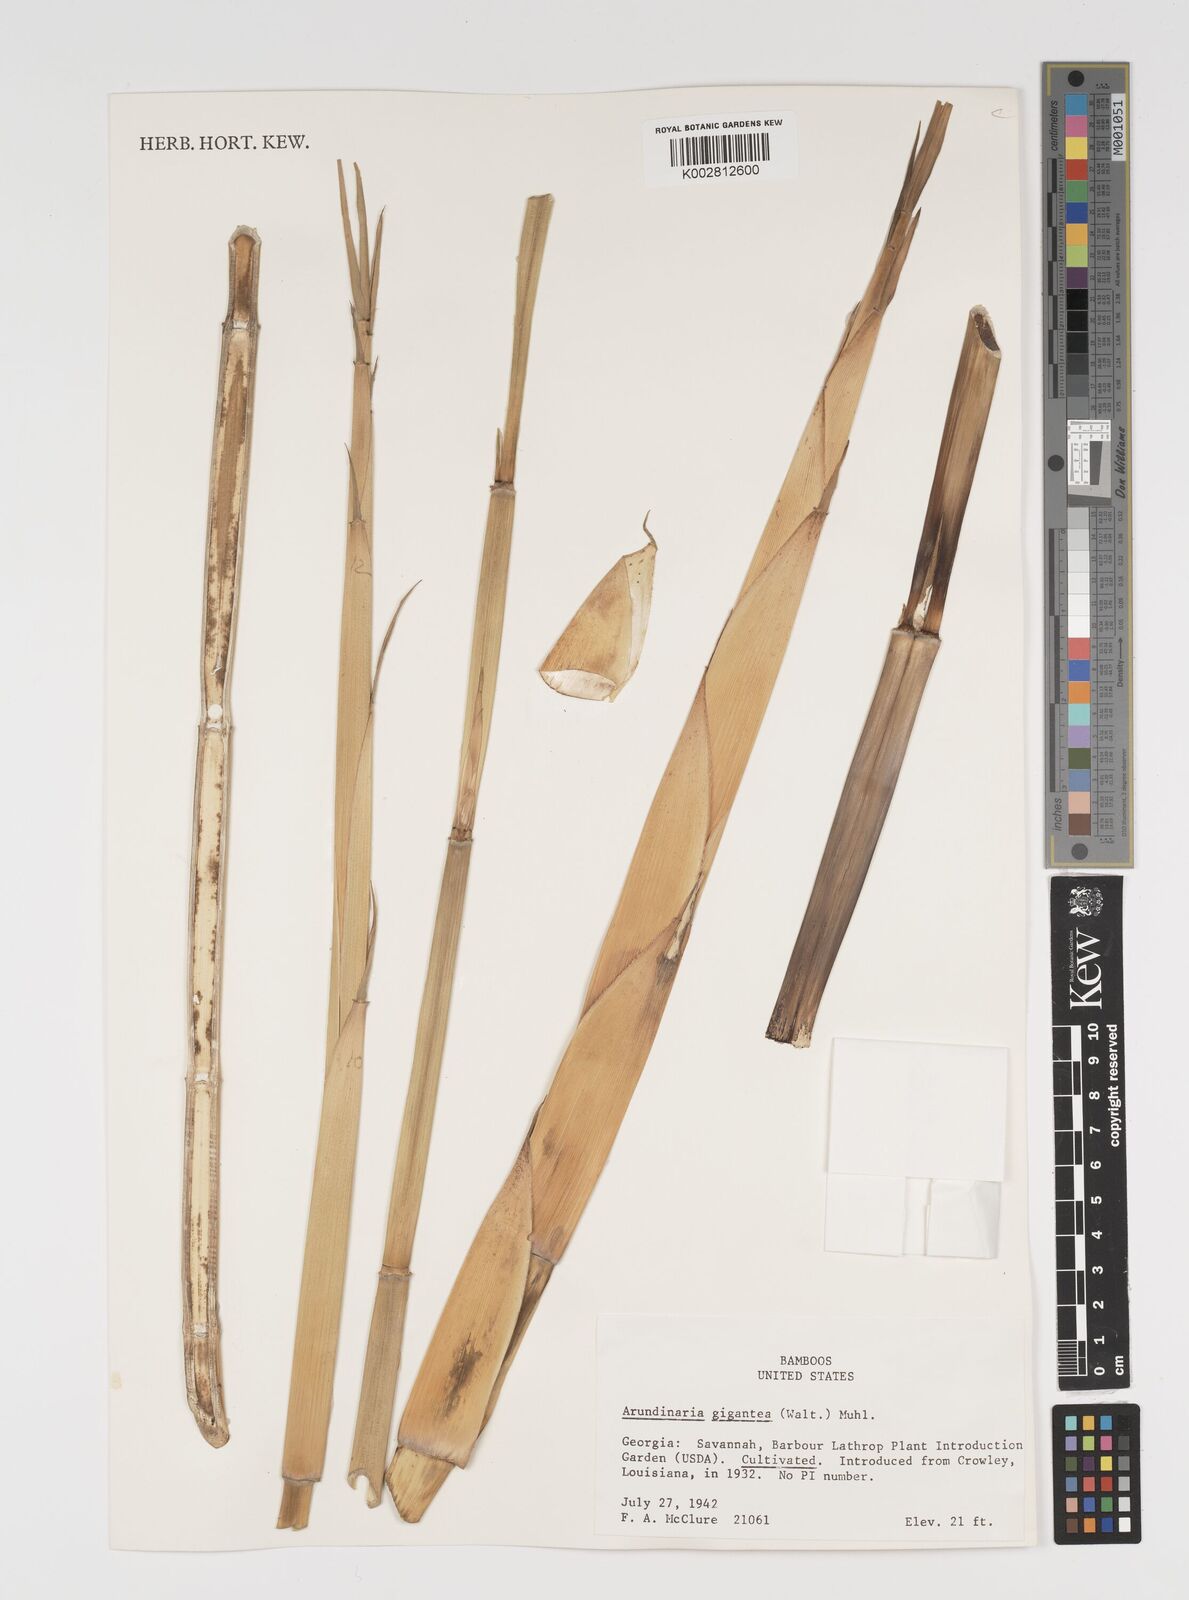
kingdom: Plantae
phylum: Tracheophyta
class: Liliopsida
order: Poales
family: Poaceae
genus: Arundinaria
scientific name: Arundinaria gigantea
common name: Giant cane
